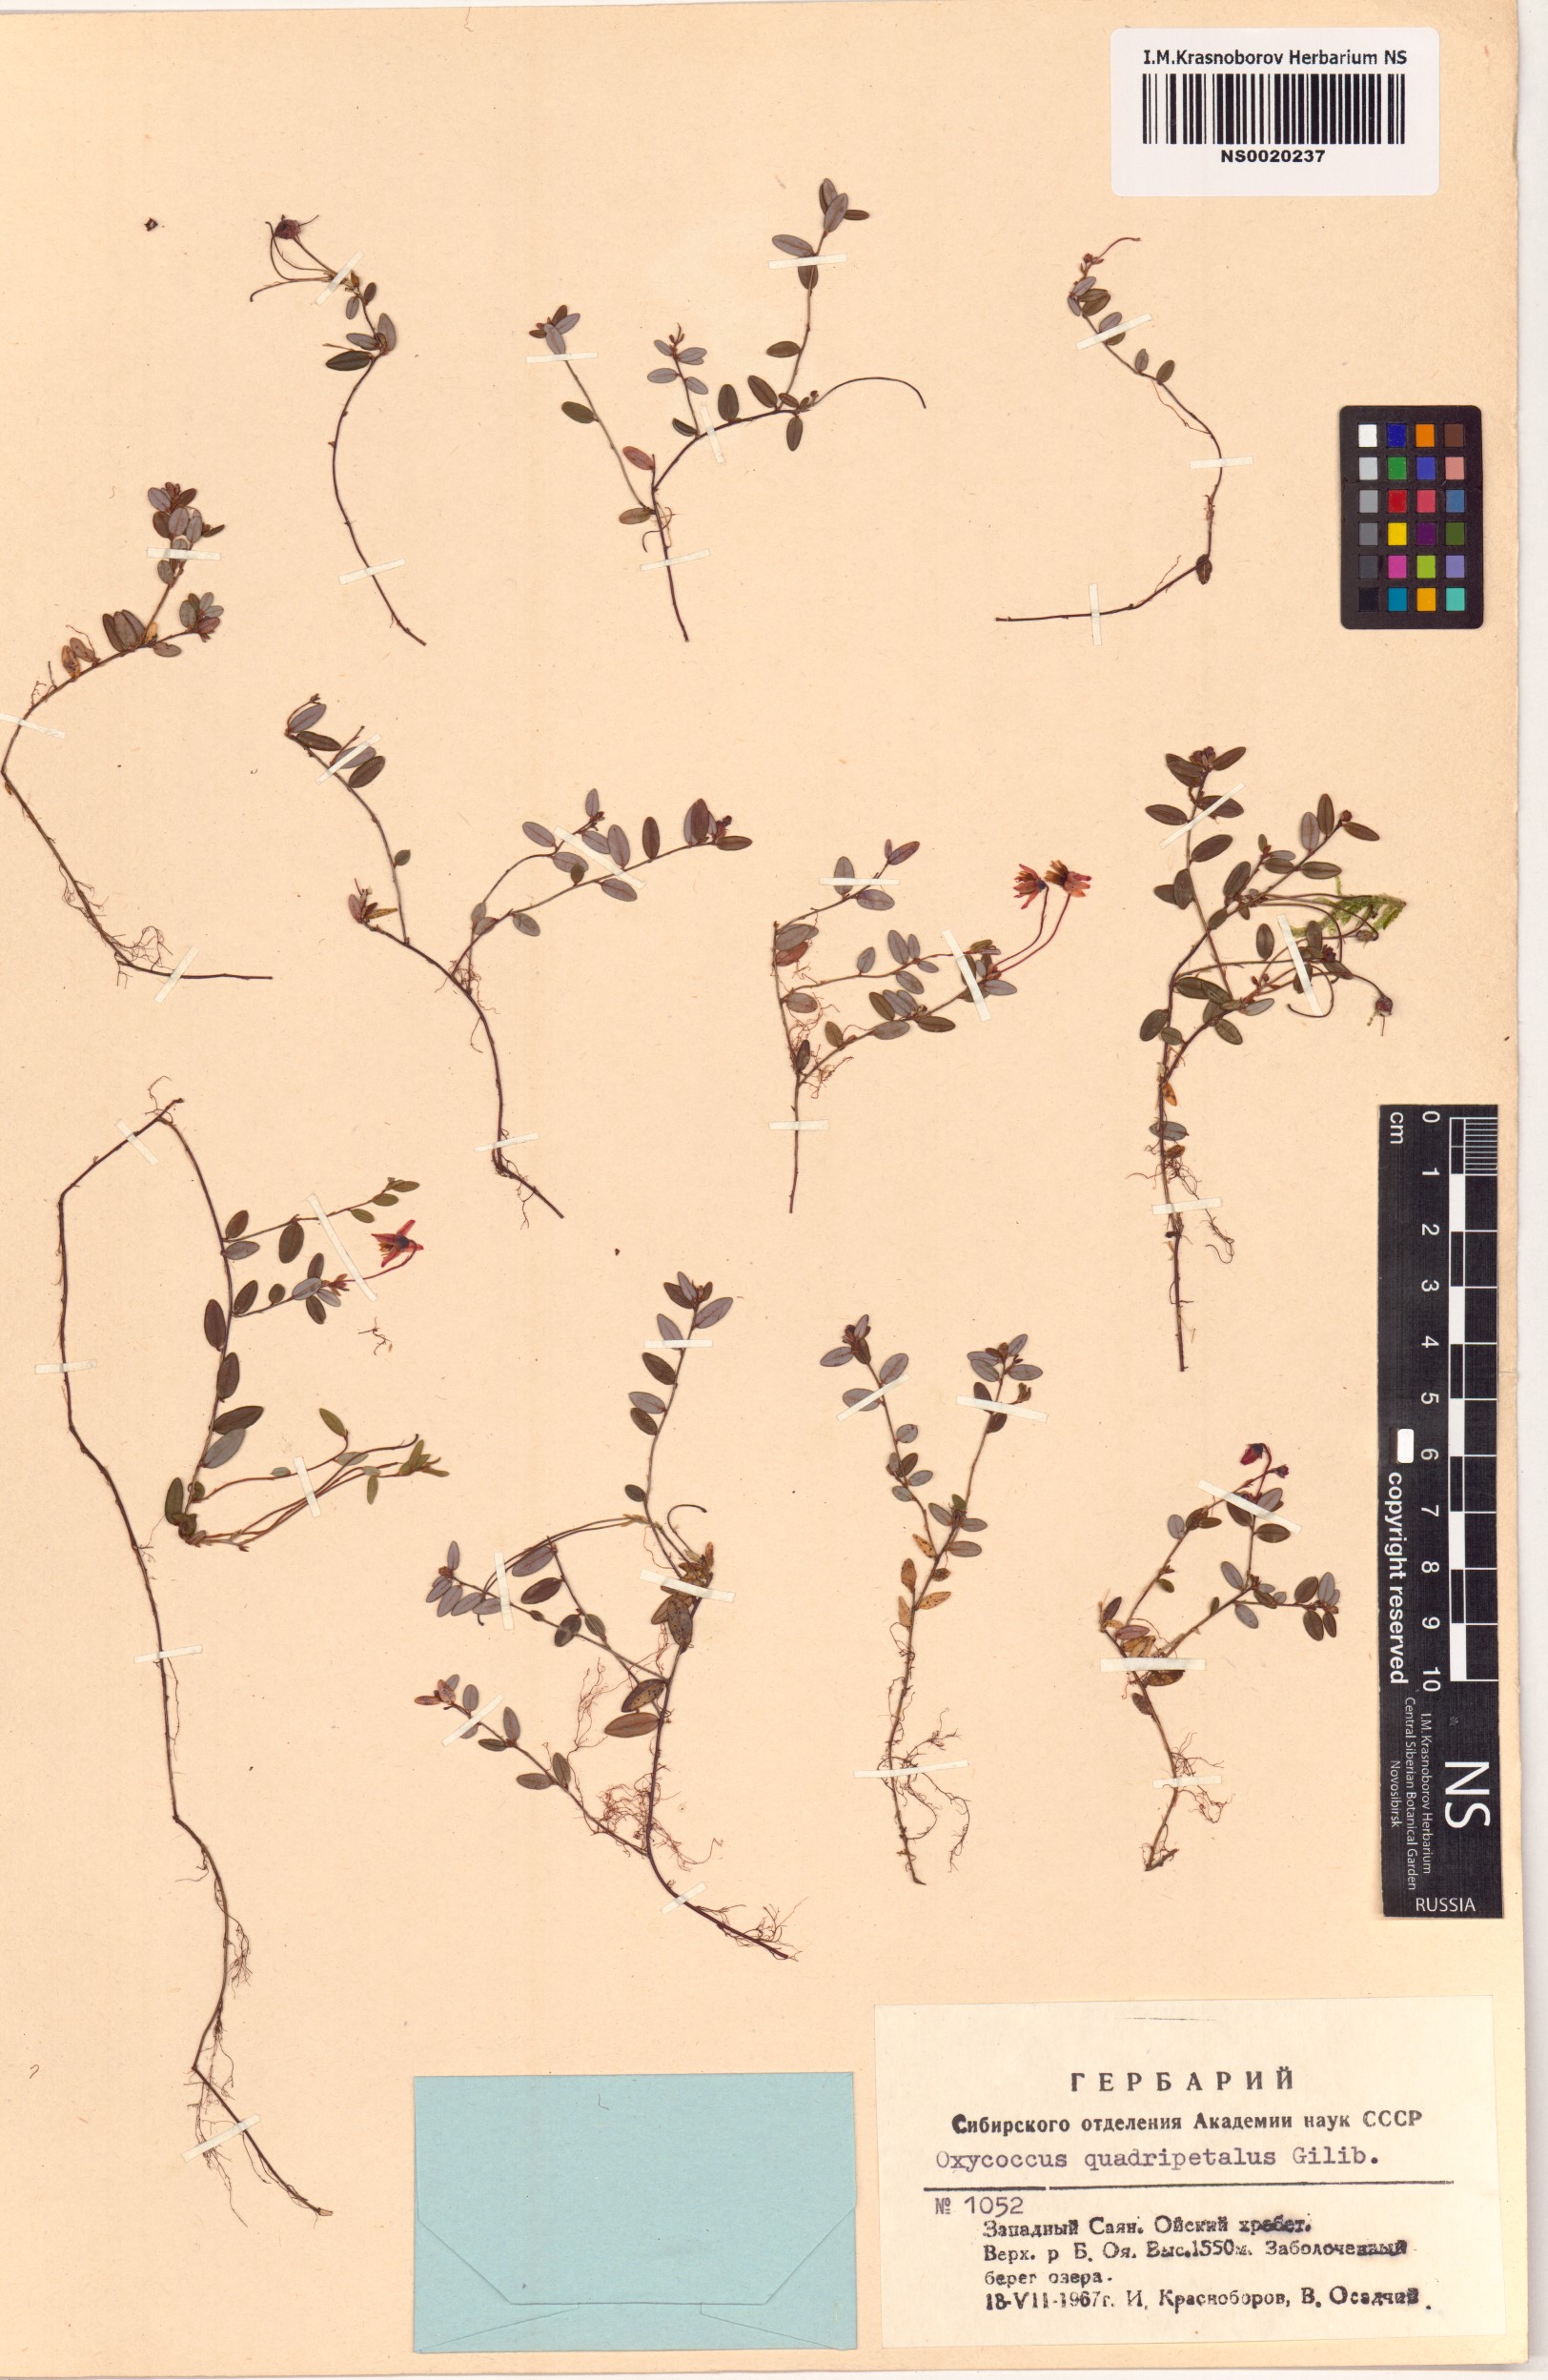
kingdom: Plantae
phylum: Tracheophyta
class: Magnoliopsida
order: Ericales
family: Ericaceae
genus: Vaccinium
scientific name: Vaccinium oxycoccos
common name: Cranberry
